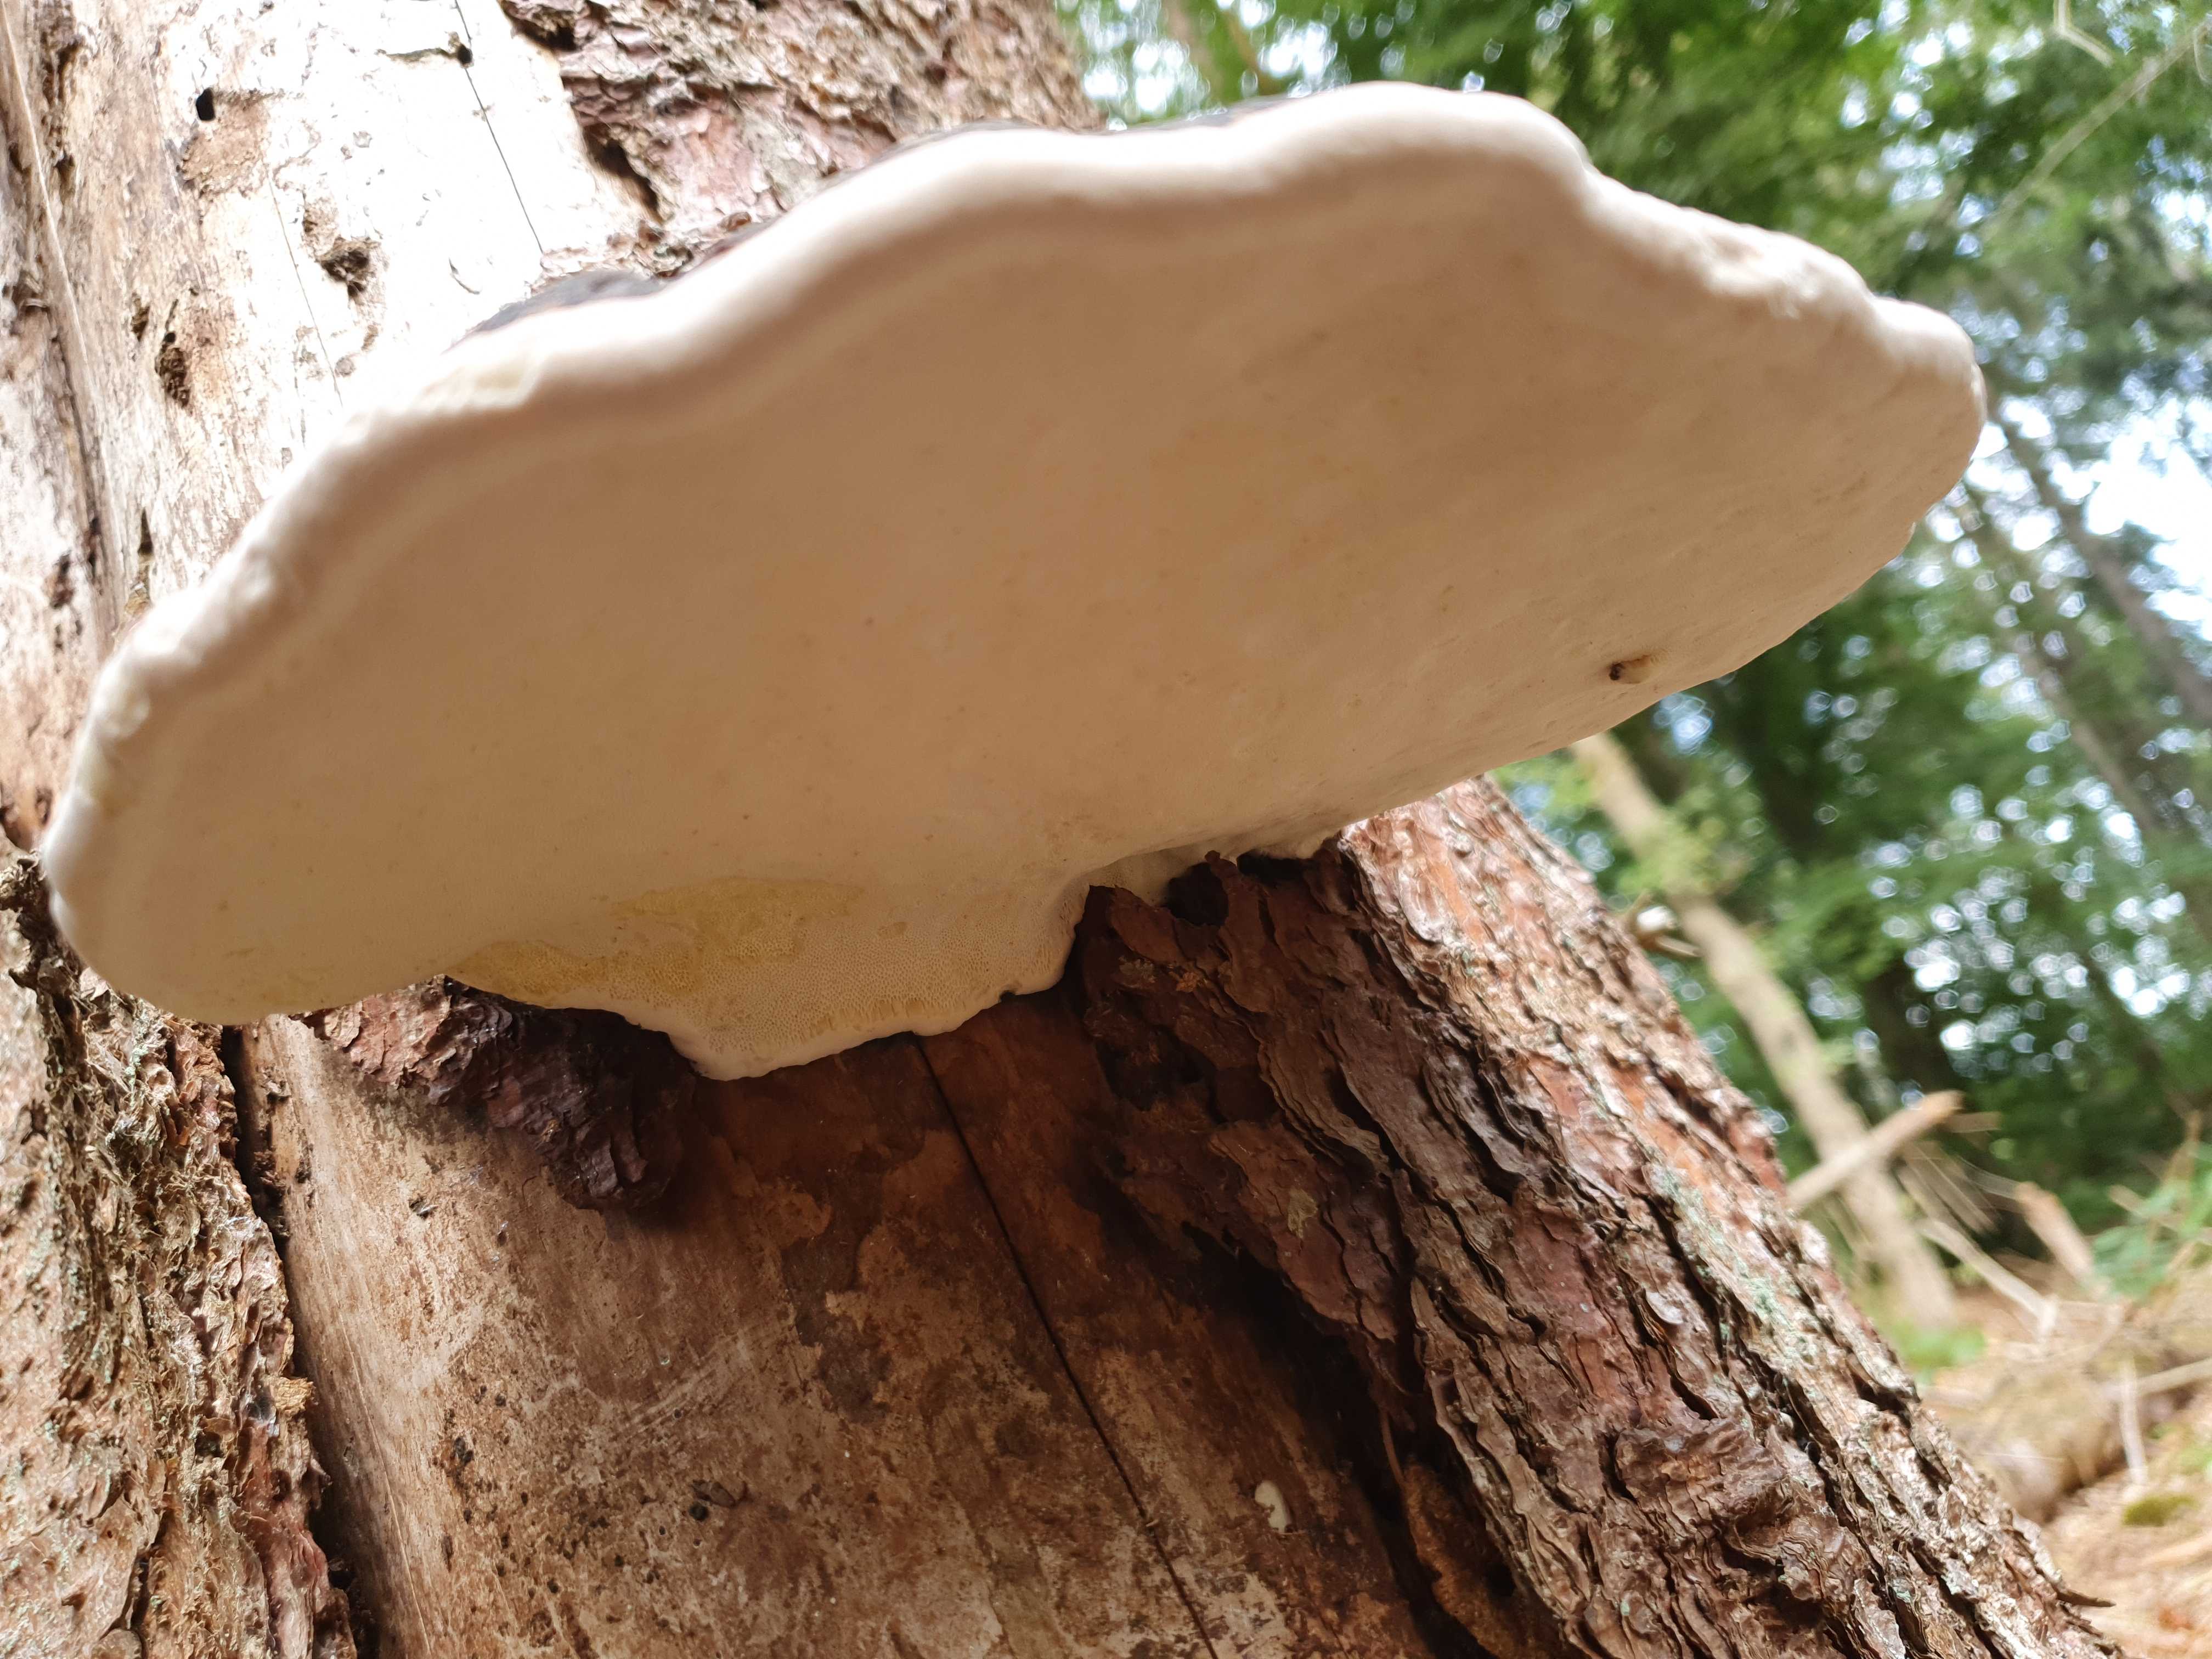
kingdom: Fungi
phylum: Basidiomycota
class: Agaricomycetes
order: Polyporales
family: Fomitopsidaceae
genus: Fomitopsis
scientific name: Fomitopsis pinicola
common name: randbæltet hovporesvamp
